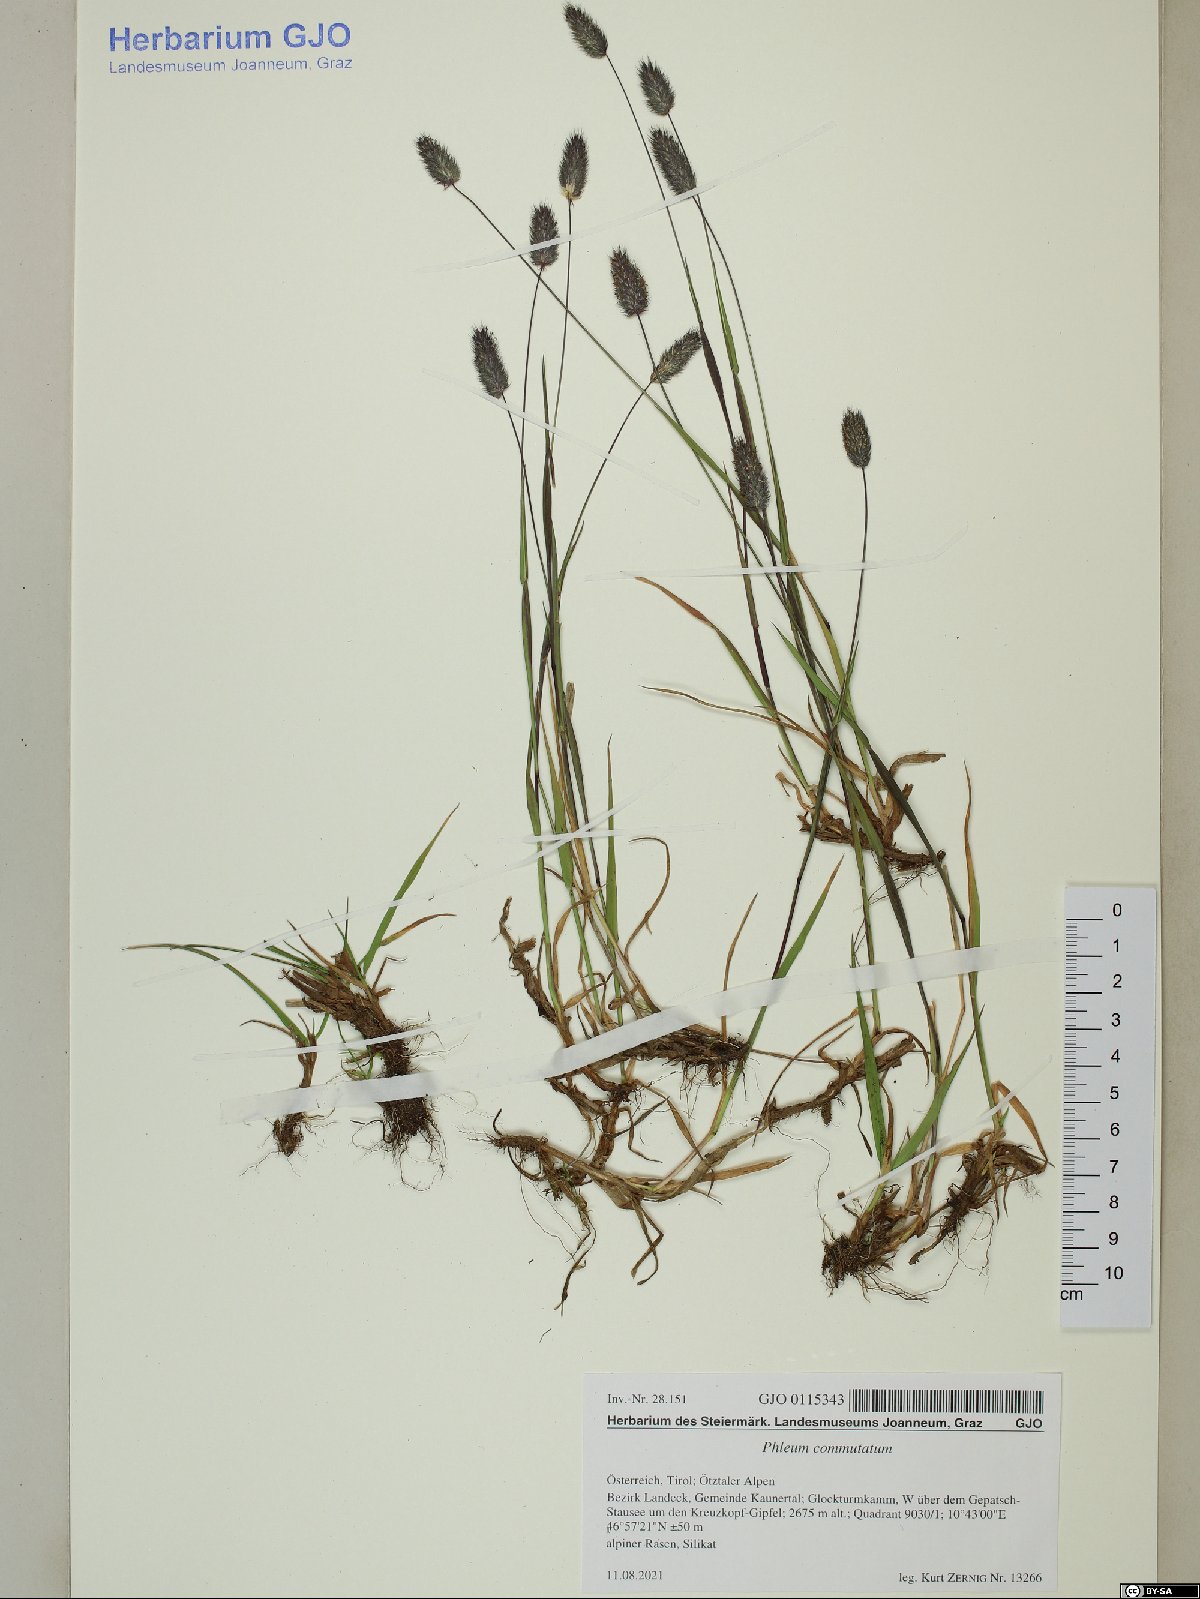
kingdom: Plantae
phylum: Tracheophyta
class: Liliopsida
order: Poales
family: Poaceae
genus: Phleum
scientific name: Phleum alpinum
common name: Alpine cat's-tail
